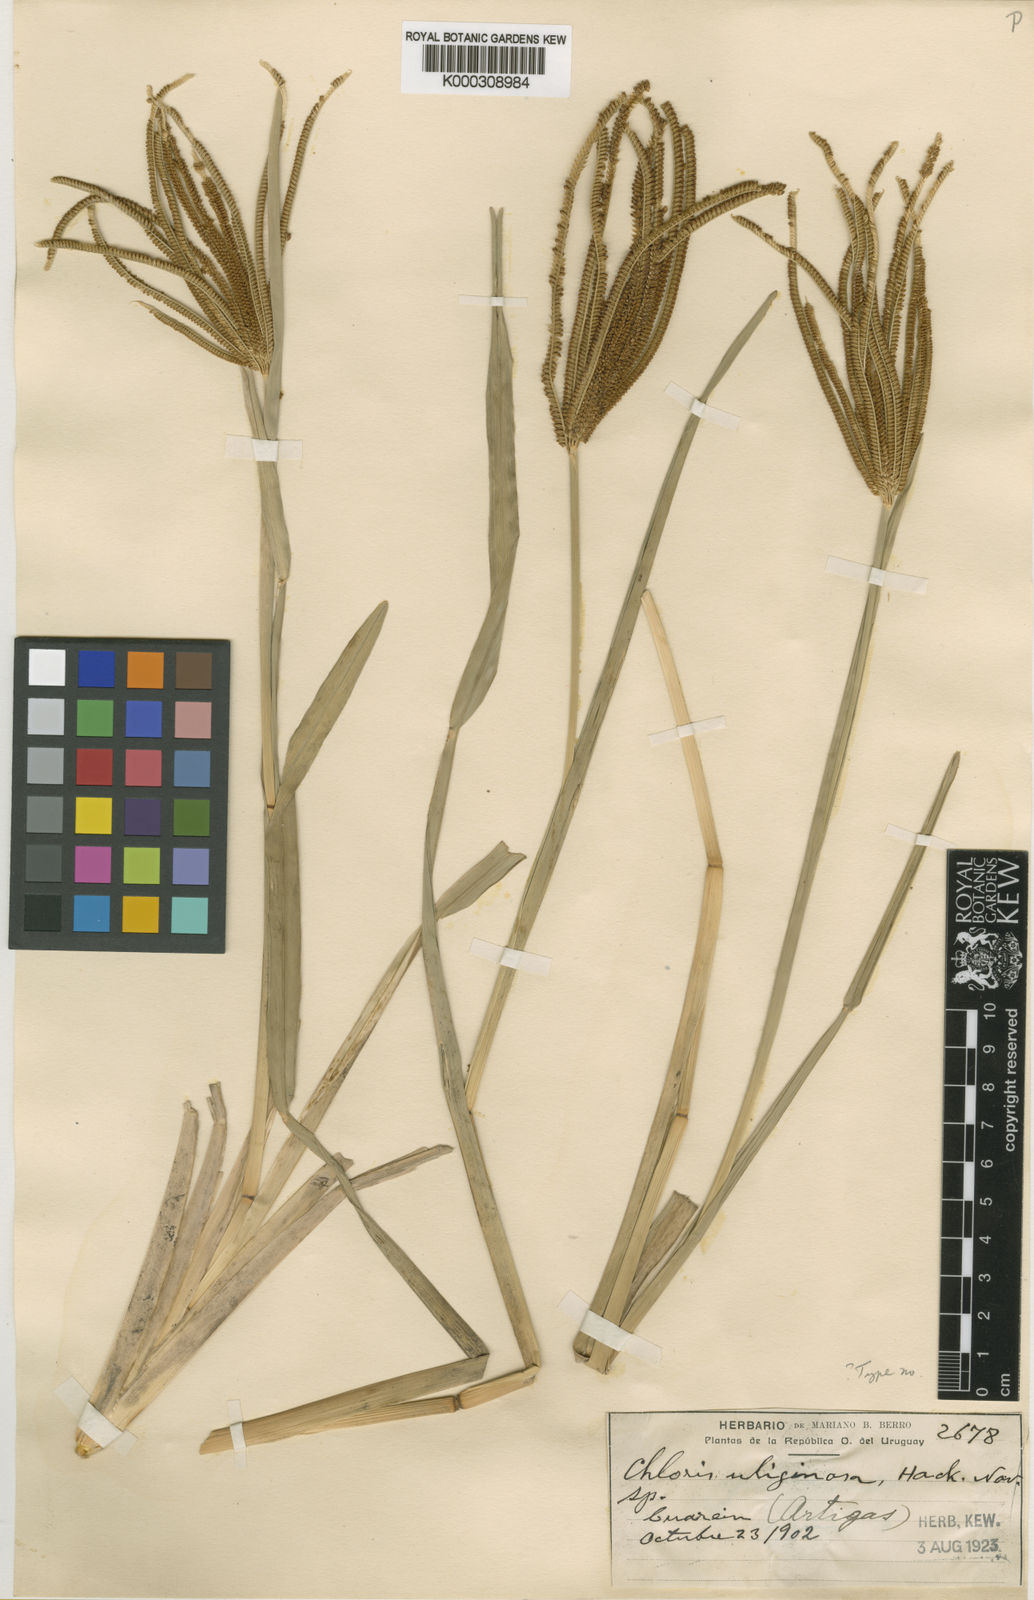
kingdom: Plantae
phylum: Tracheophyta
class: Liliopsida
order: Poales
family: Poaceae
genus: Eustachys
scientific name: Eustachys uliginosa
